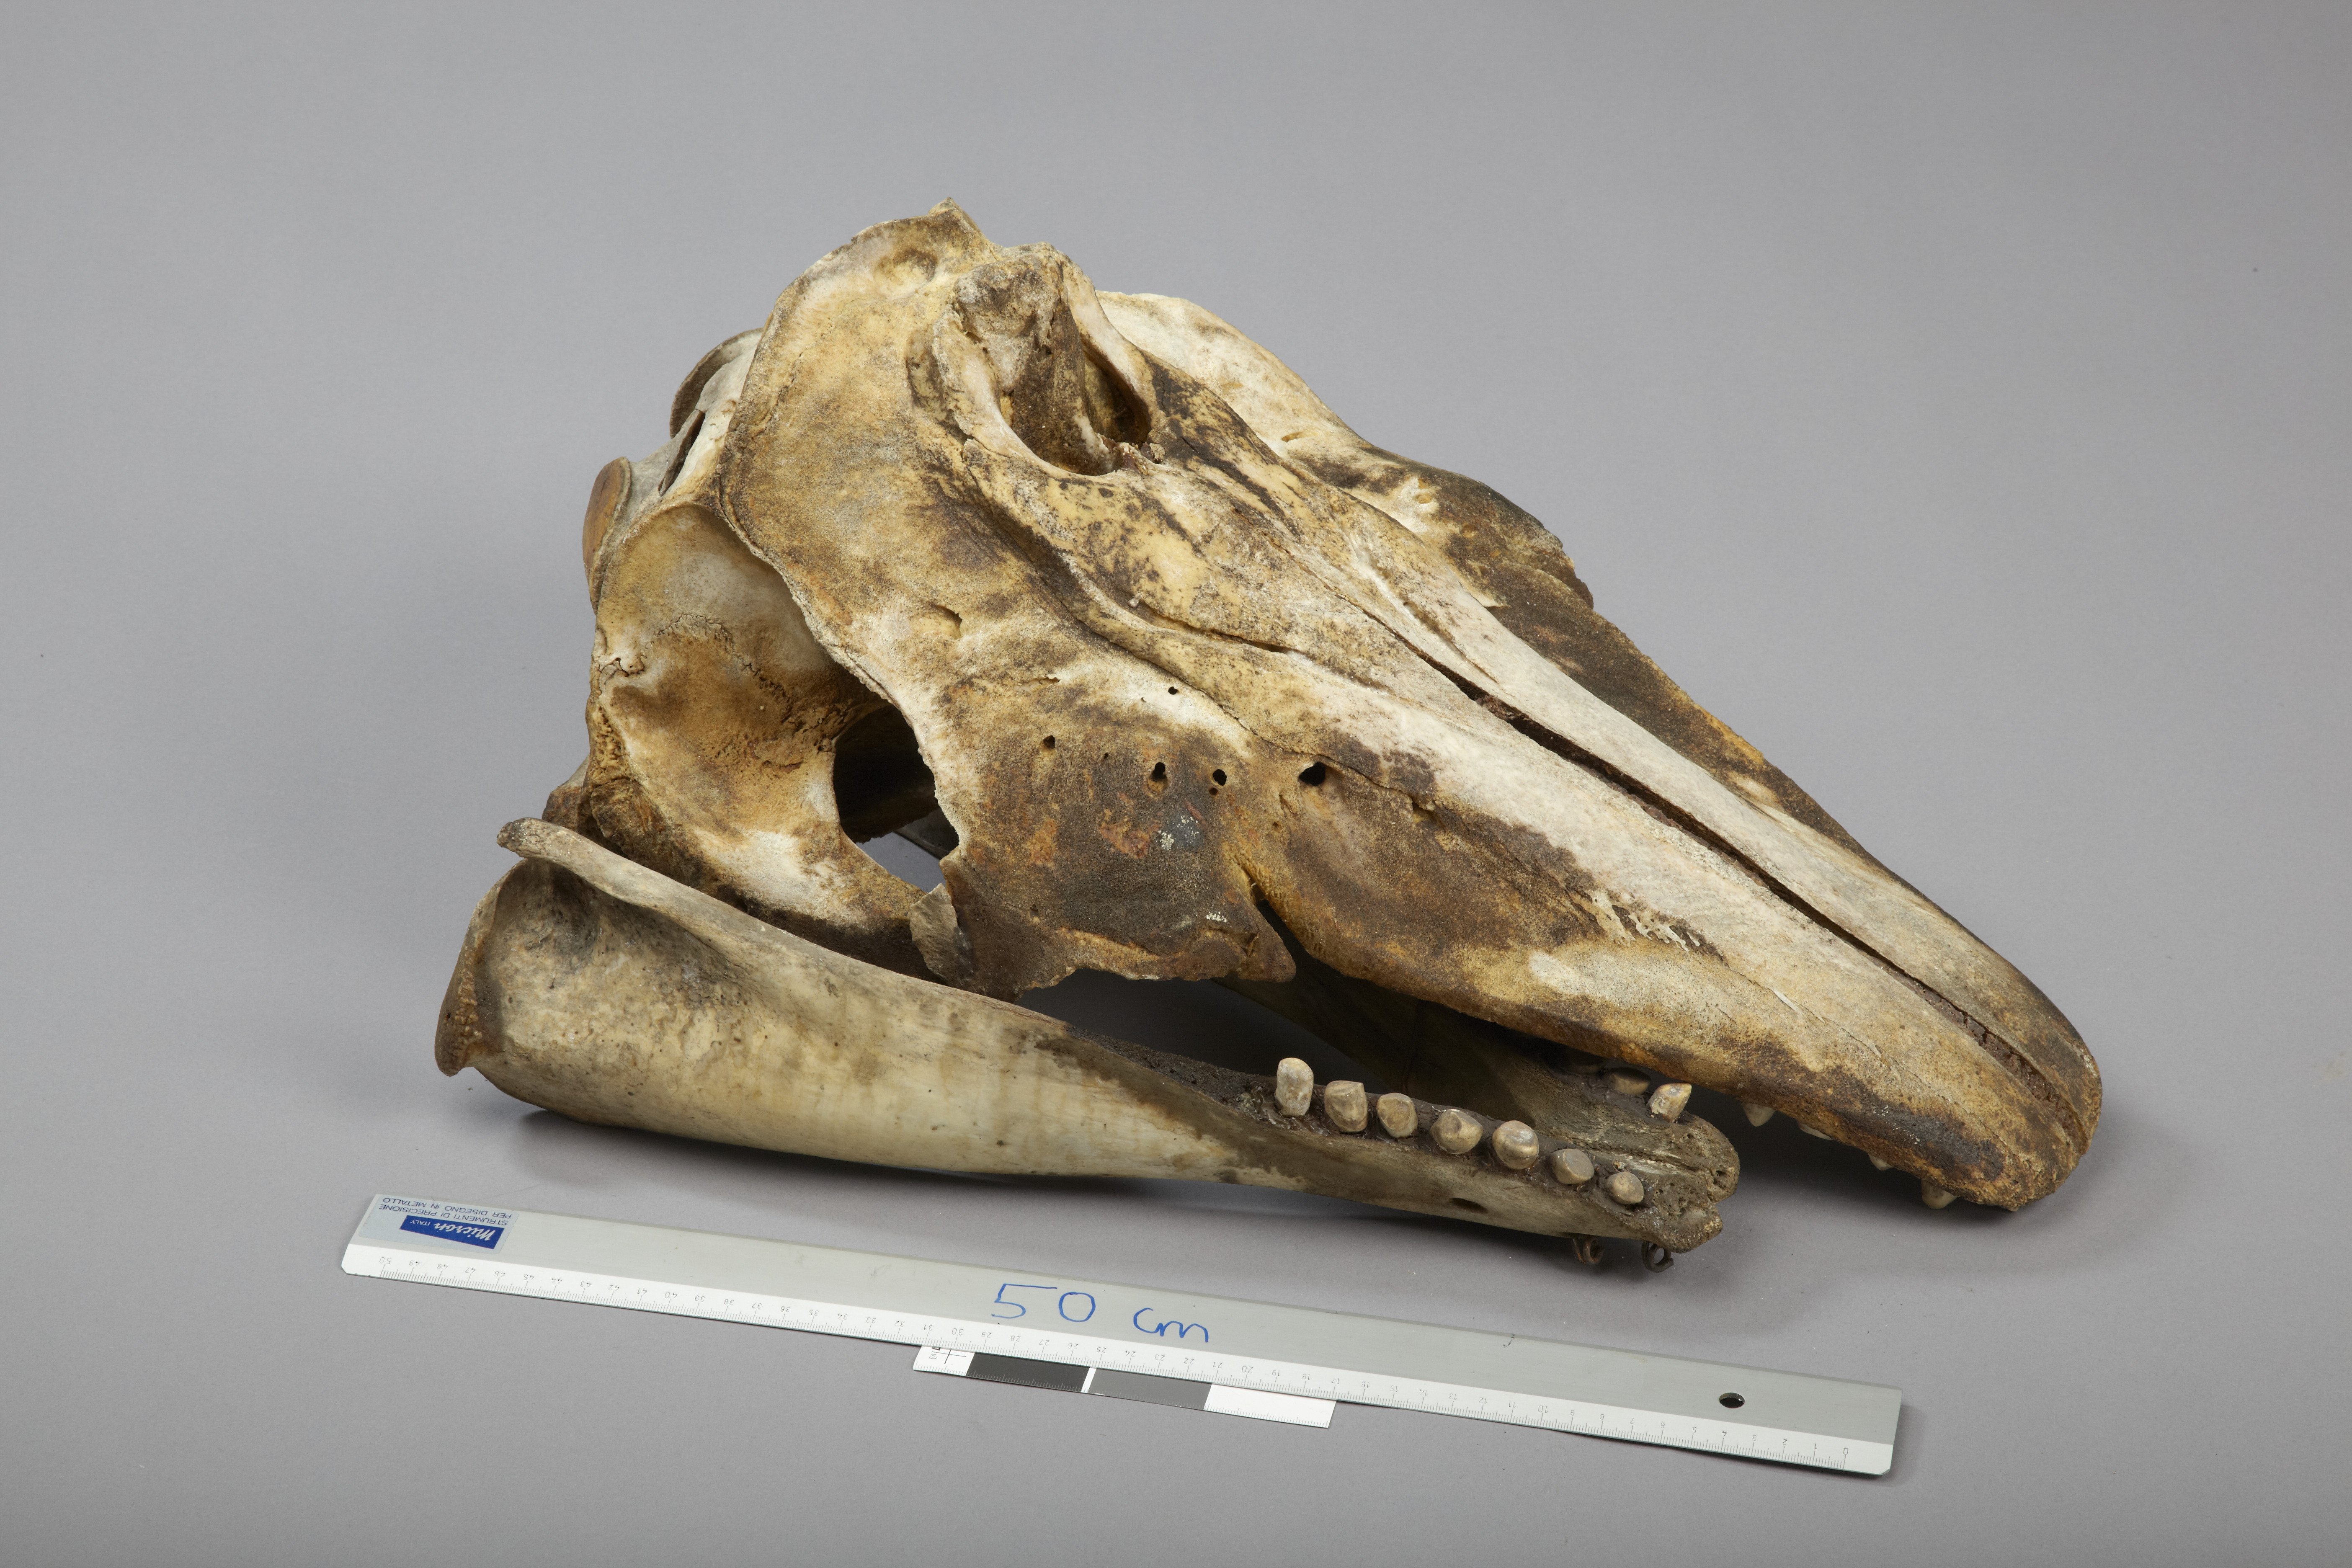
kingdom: Animalia
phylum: Chordata
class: Mammalia
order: Cetacea
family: Monodontidae
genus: Delphinapterus
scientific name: Delphinapterus leucas
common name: Beluga
